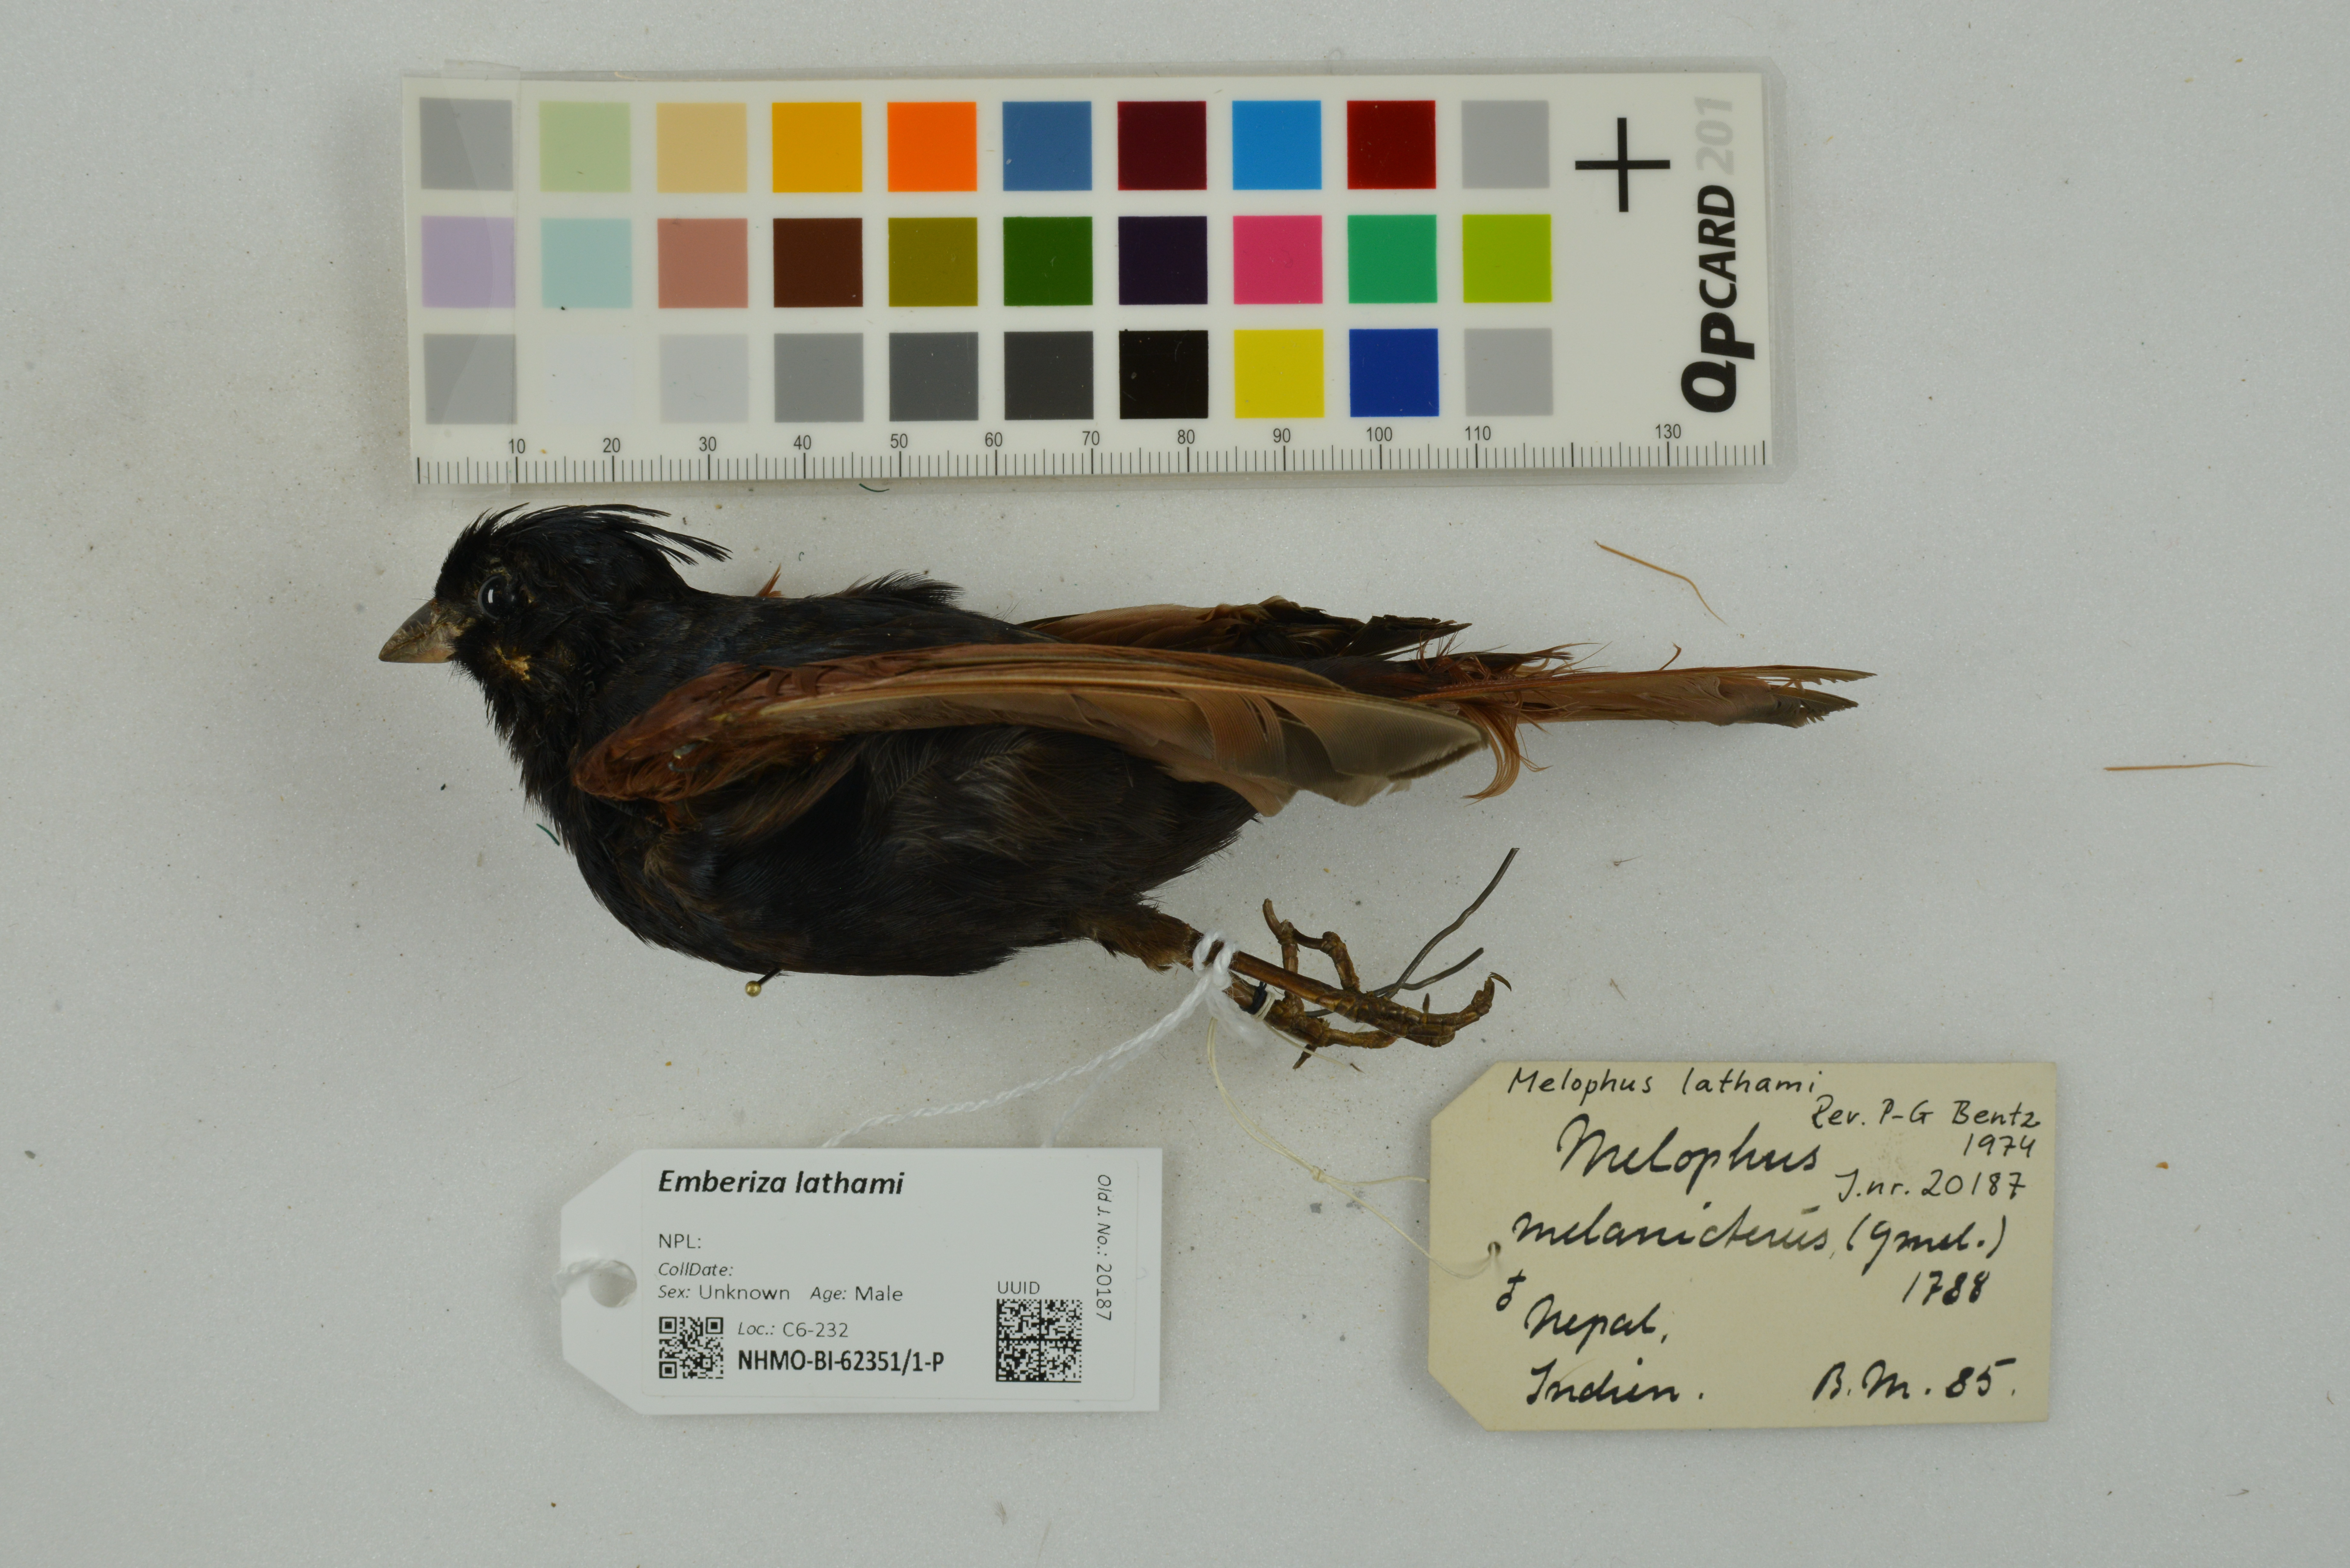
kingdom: Animalia
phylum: Chordata
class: Aves
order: Passeriformes
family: Emberizidae
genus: Emberiza
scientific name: Emberiza lathami
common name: Crested bunting
